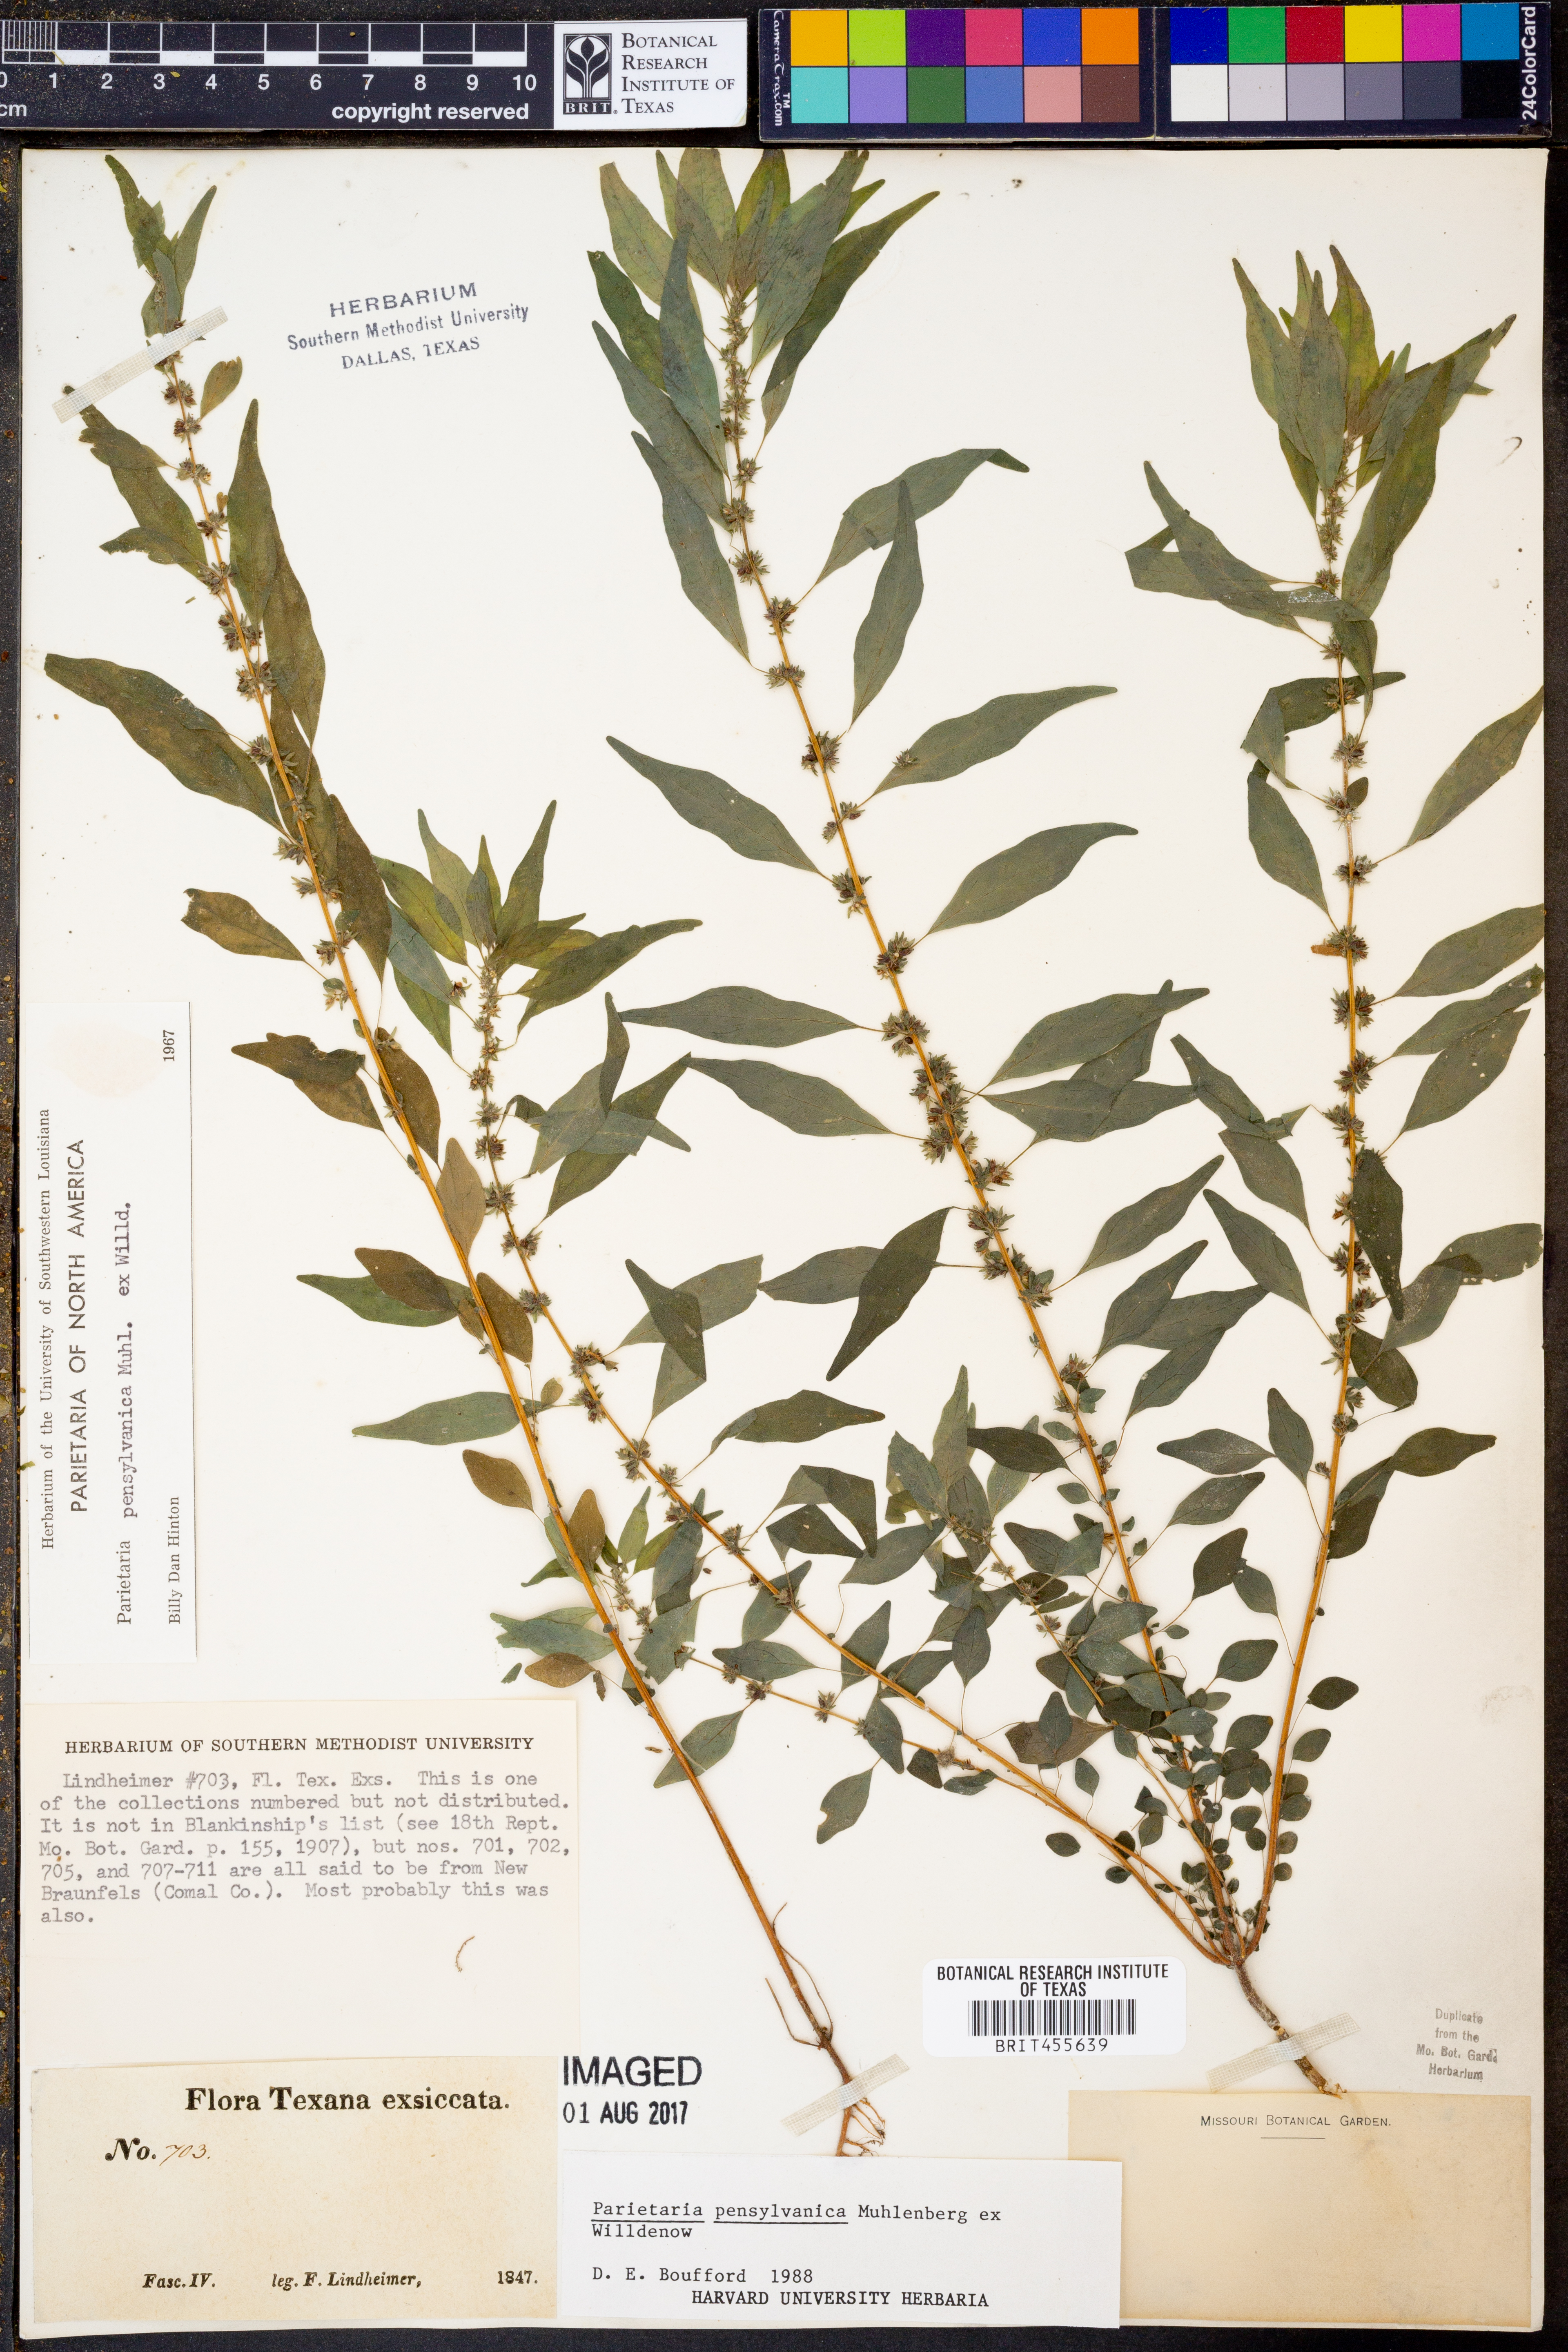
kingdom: Plantae
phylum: Tracheophyta
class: Magnoliopsida
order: Rosales
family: Urticaceae
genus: Parietaria
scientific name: Parietaria pensylvanica
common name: Pennsylvania pellitory
